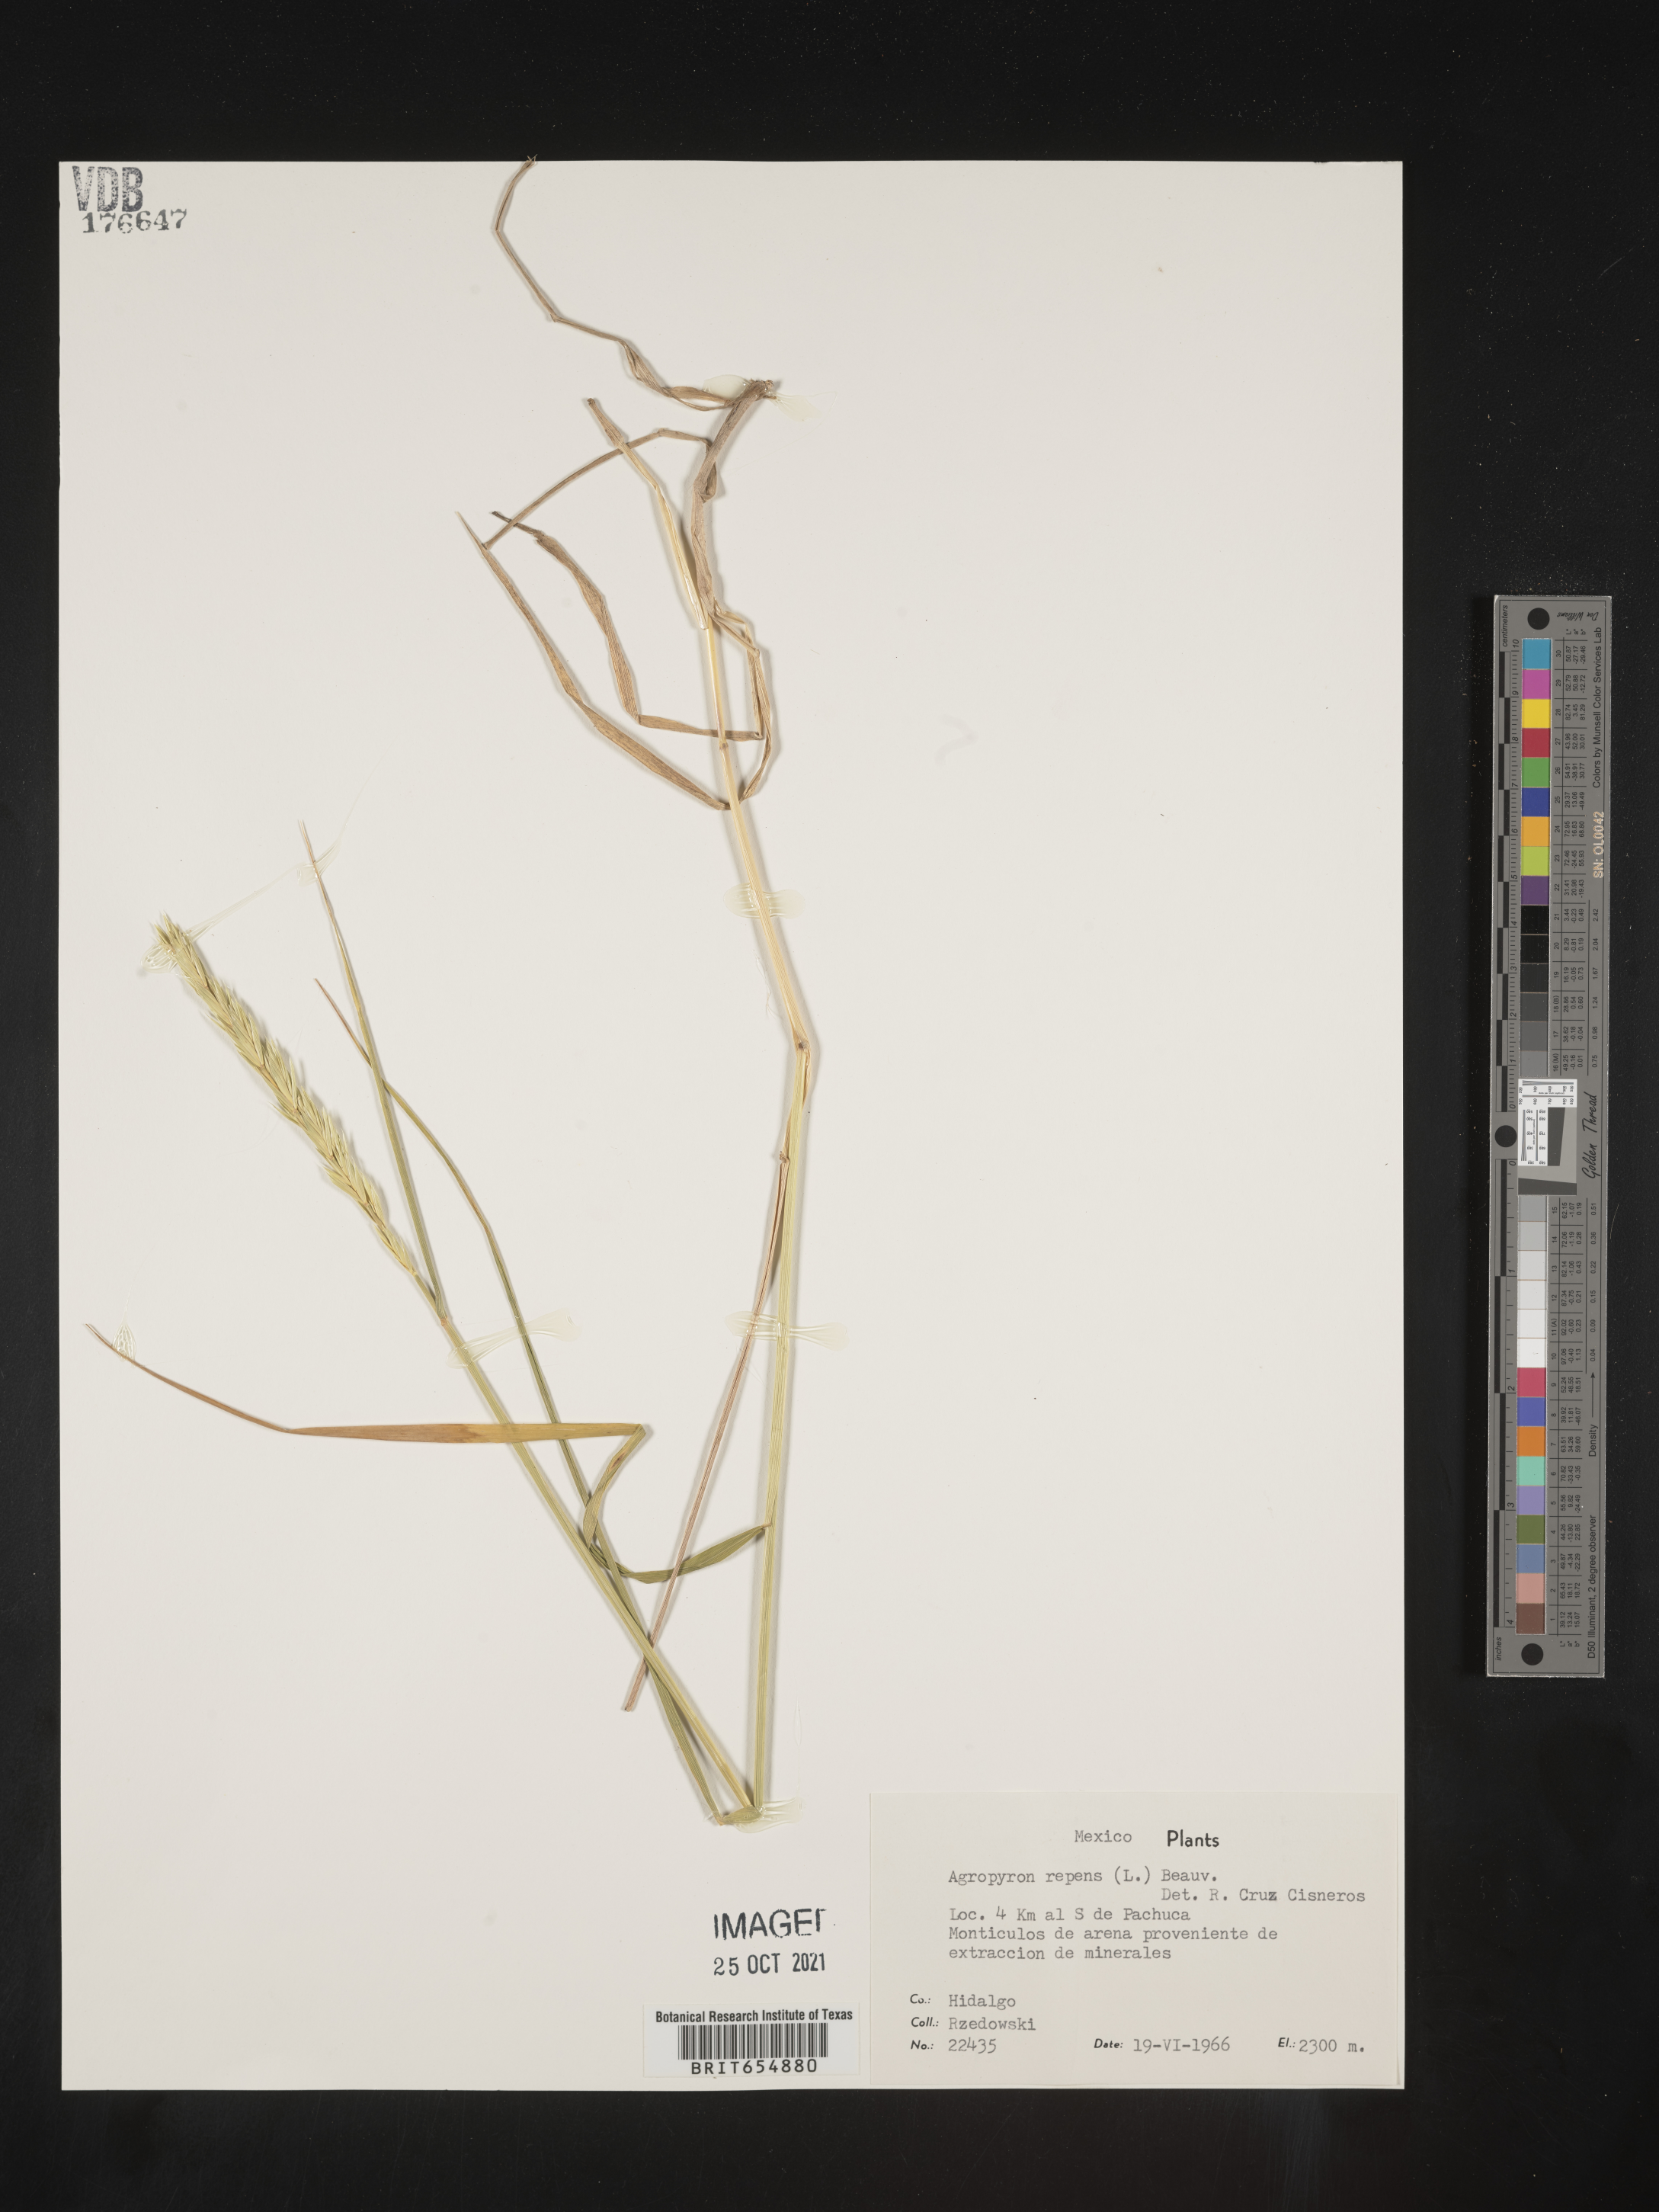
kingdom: Plantae
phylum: Tracheophyta
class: Liliopsida
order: Poales
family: Poaceae
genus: Agropyron
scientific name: Agropyron
